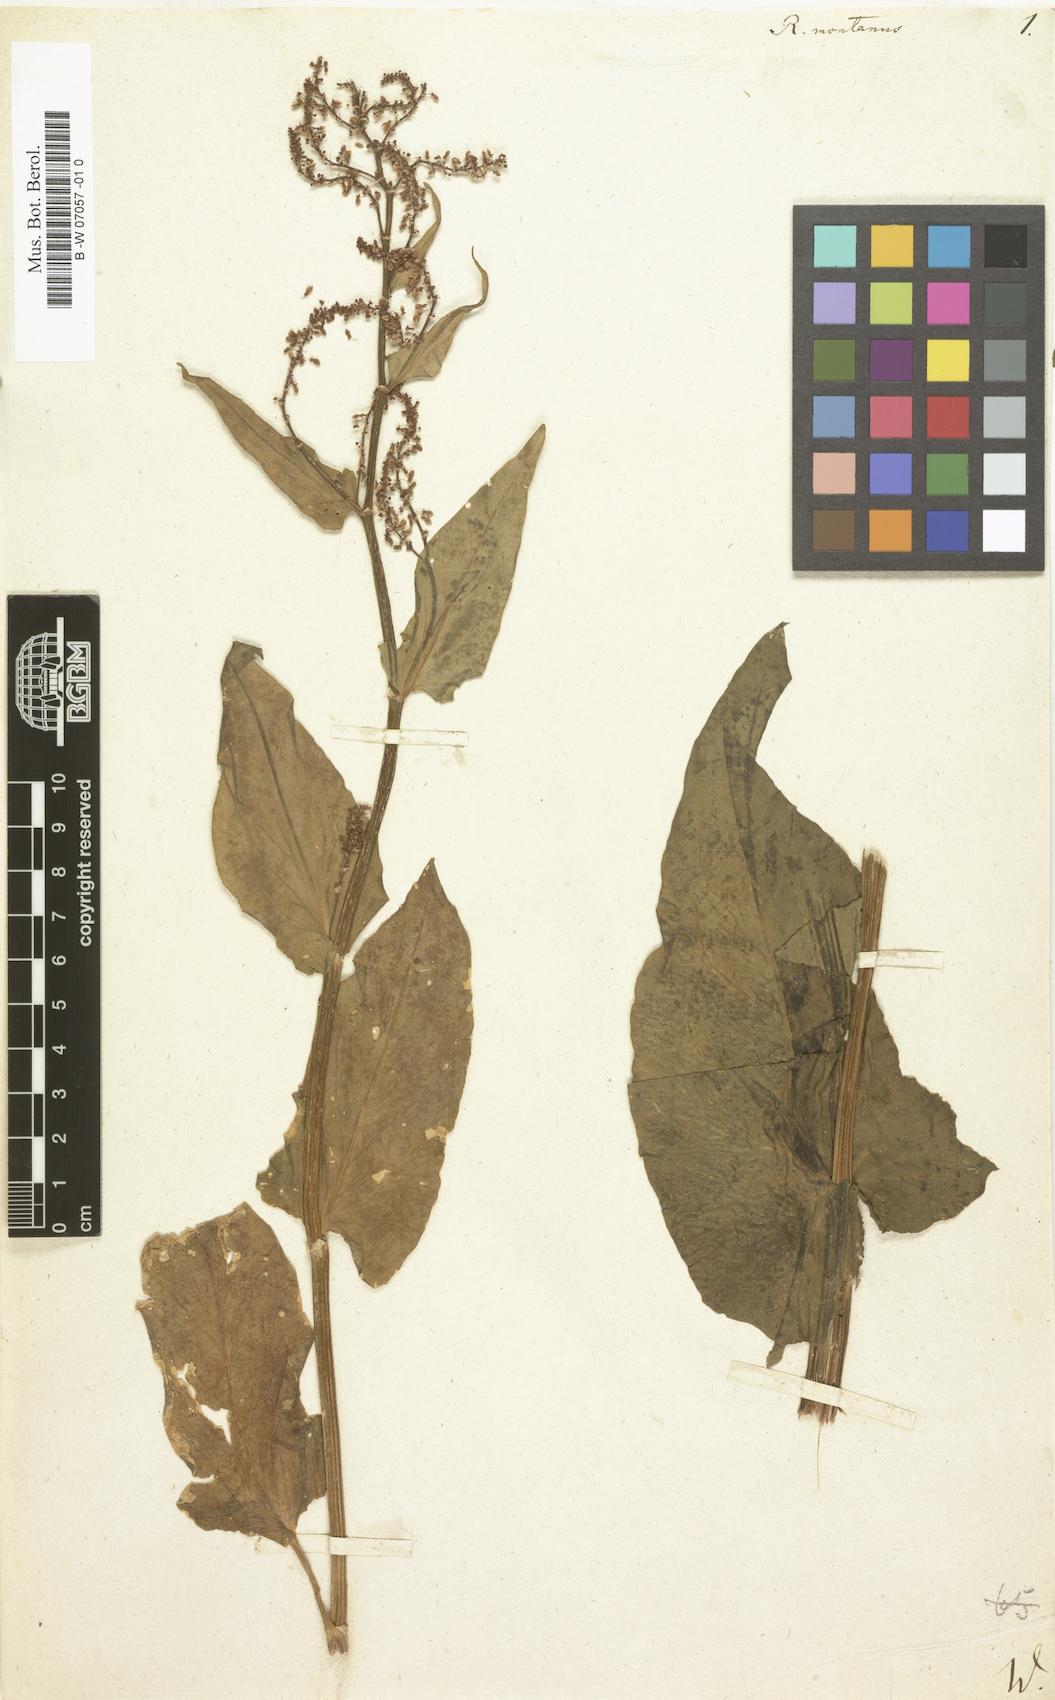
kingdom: Plantae
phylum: Tracheophyta
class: Magnoliopsida
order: Caryophyllales
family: Polygonaceae
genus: Rumex
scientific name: Rumex
